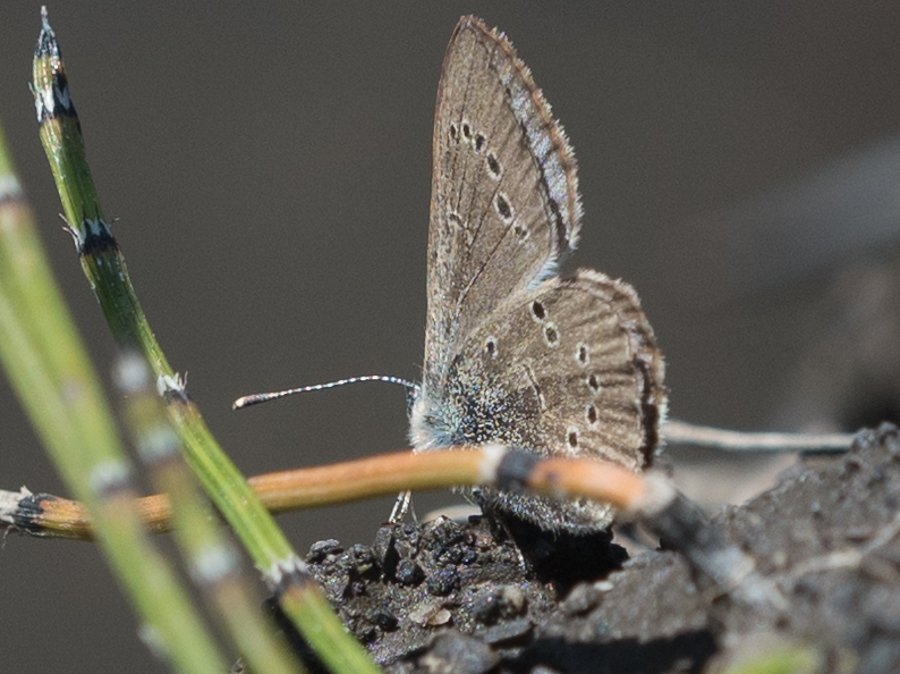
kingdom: Animalia
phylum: Arthropoda
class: Insecta
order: Lepidoptera
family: Lycaenidae
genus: Glaucopsyche
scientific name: Glaucopsyche lygdamus
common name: Silvery Blue
